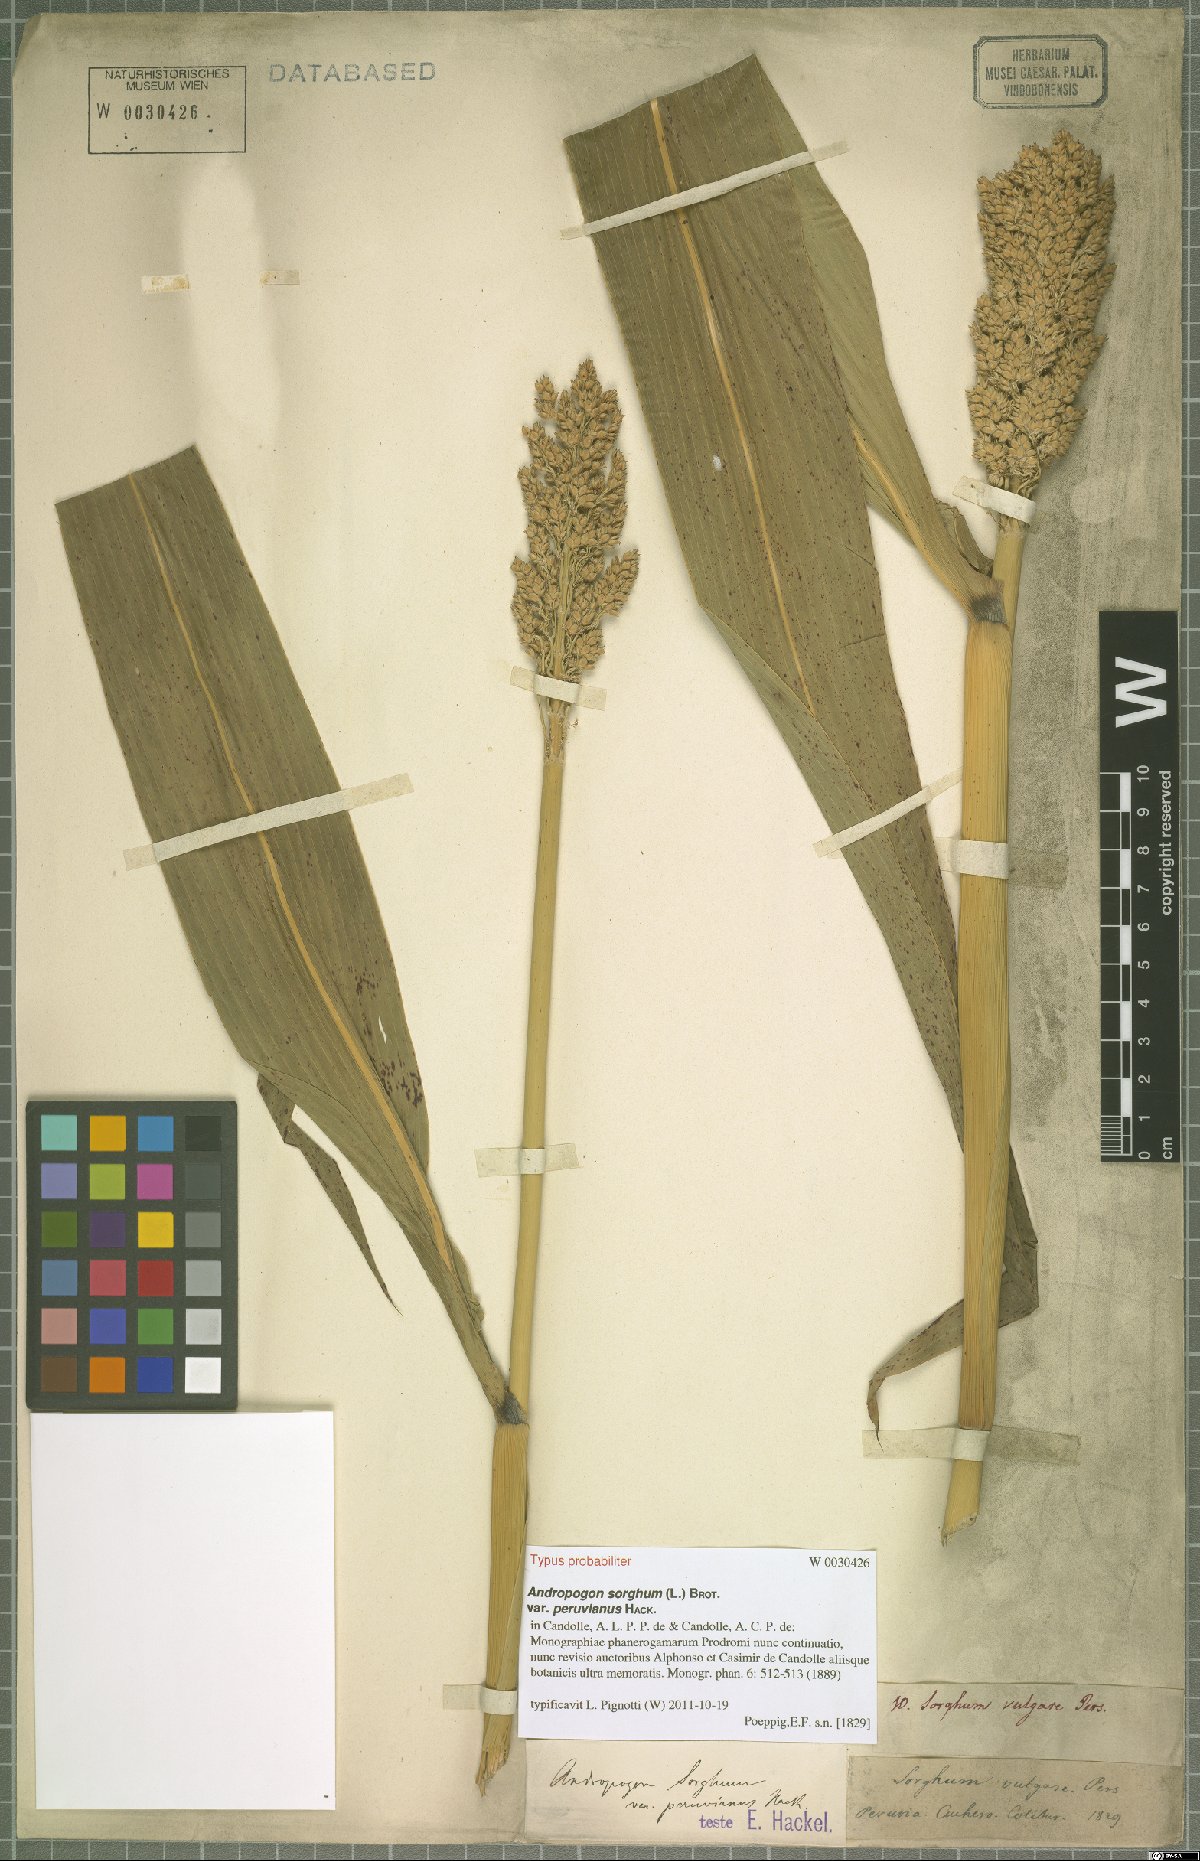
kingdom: Plantae
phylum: Tracheophyta
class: Liliopsida
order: Poales
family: Poaceae
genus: Sorghum
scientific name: Sorghum bicolor
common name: Sorghum
